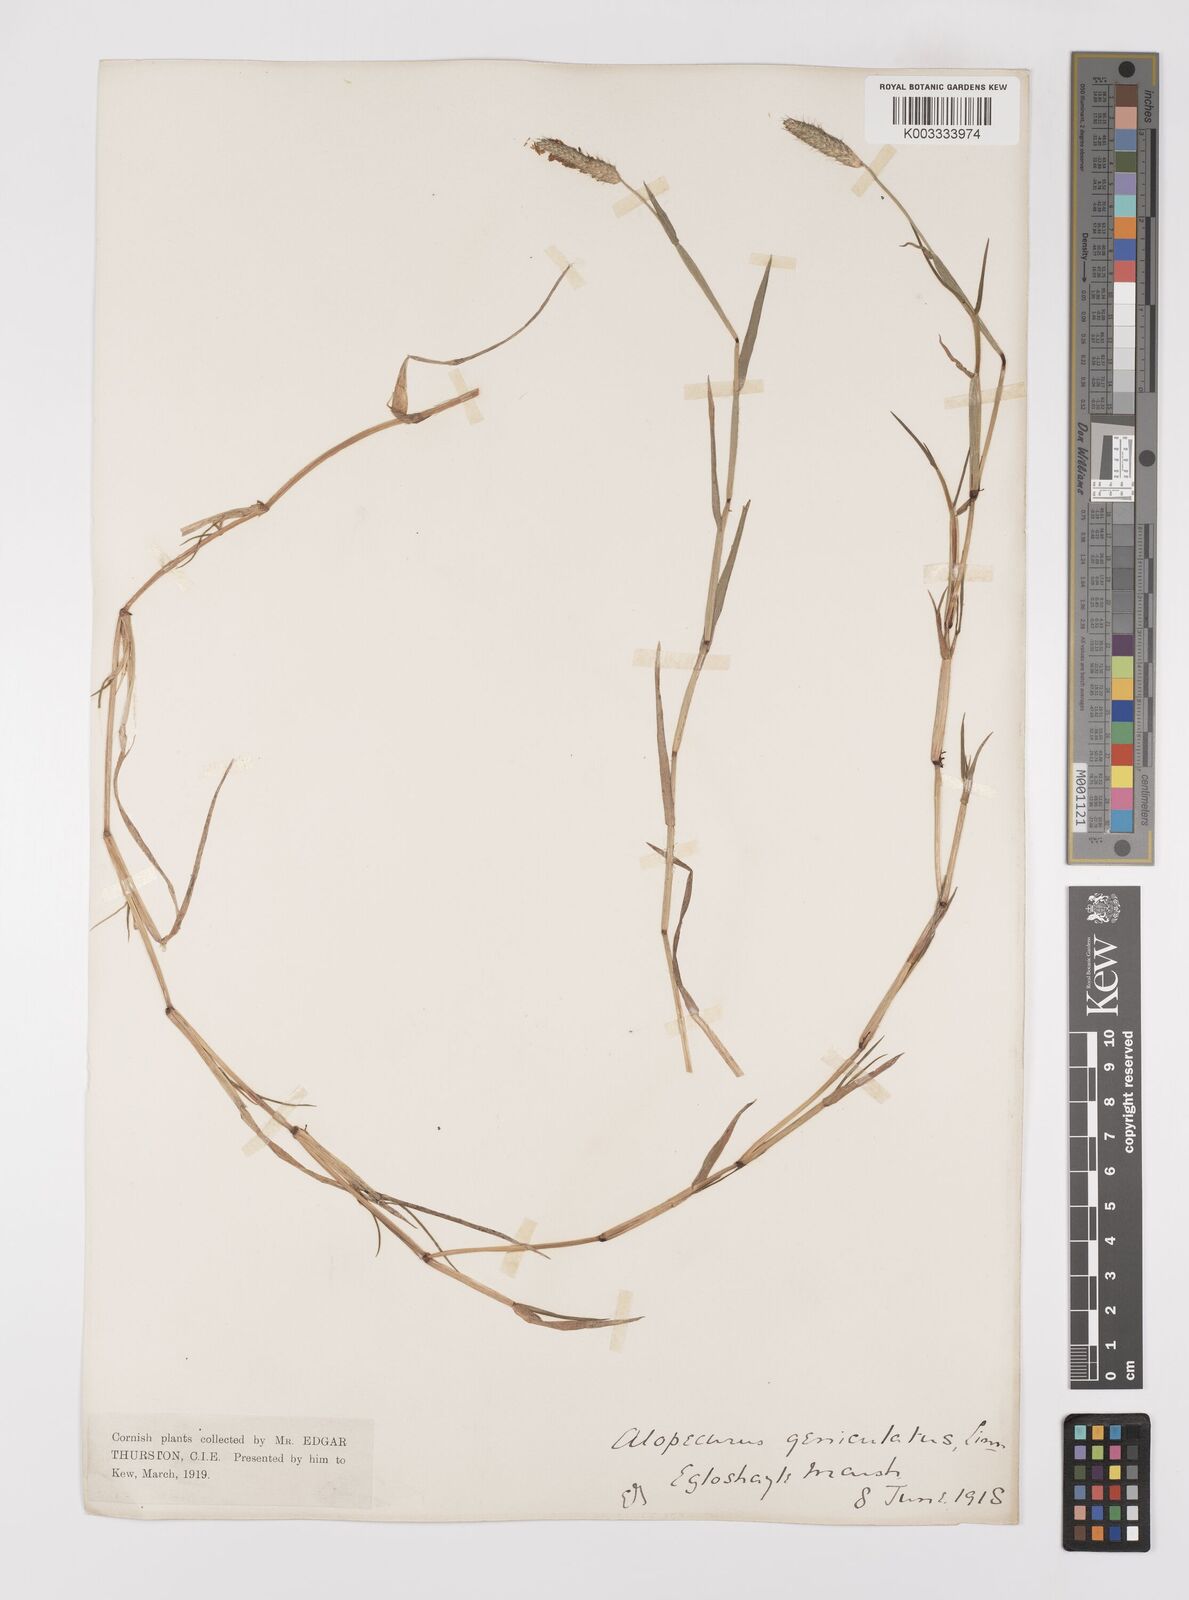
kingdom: Plantae
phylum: Tracheophyta
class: Liliopsida
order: Poales
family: Poaceae
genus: Alopecurus
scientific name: Alopecurus geniculatus
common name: Water foxtail
